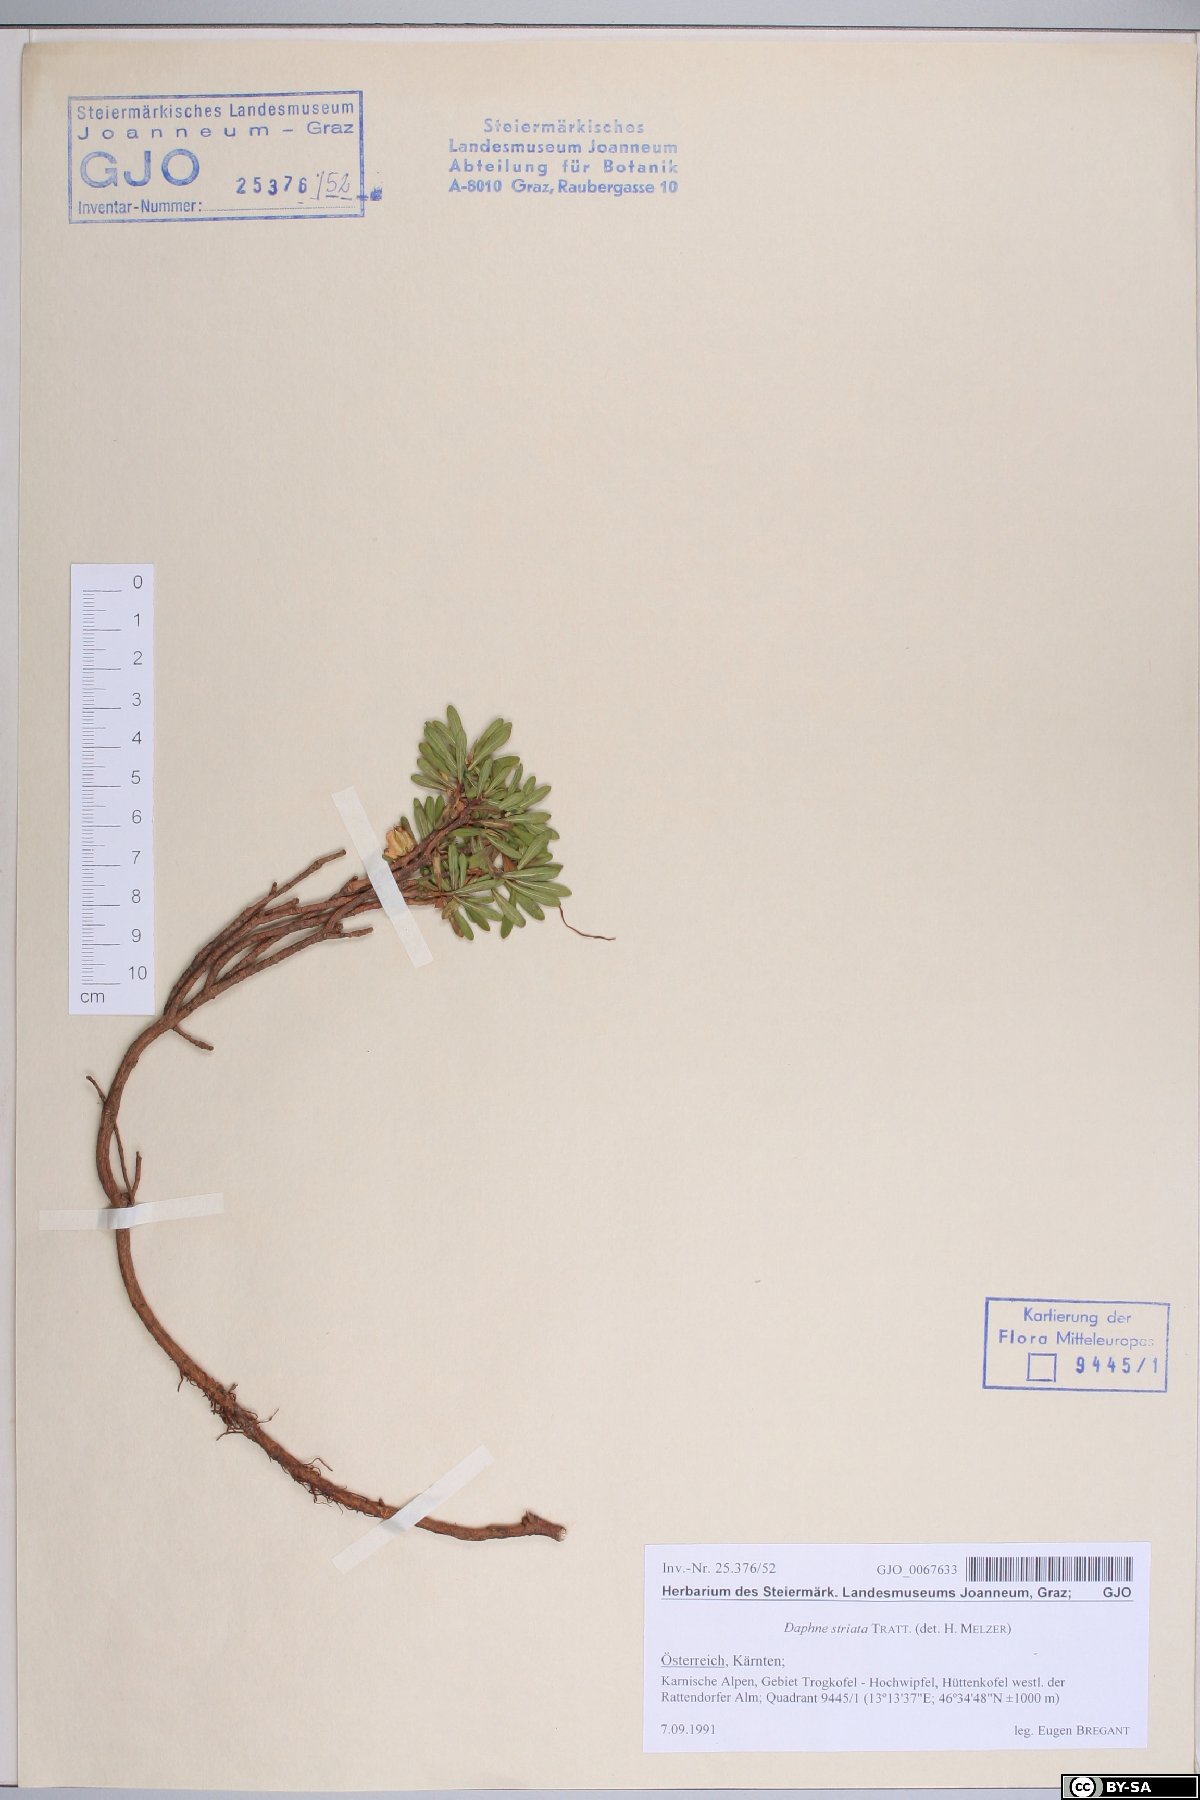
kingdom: Plantae
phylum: Tracheophyta
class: Magnoliopsida
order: Malvales
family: Thymelaeaceae
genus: Daphne
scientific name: Daphne striata
